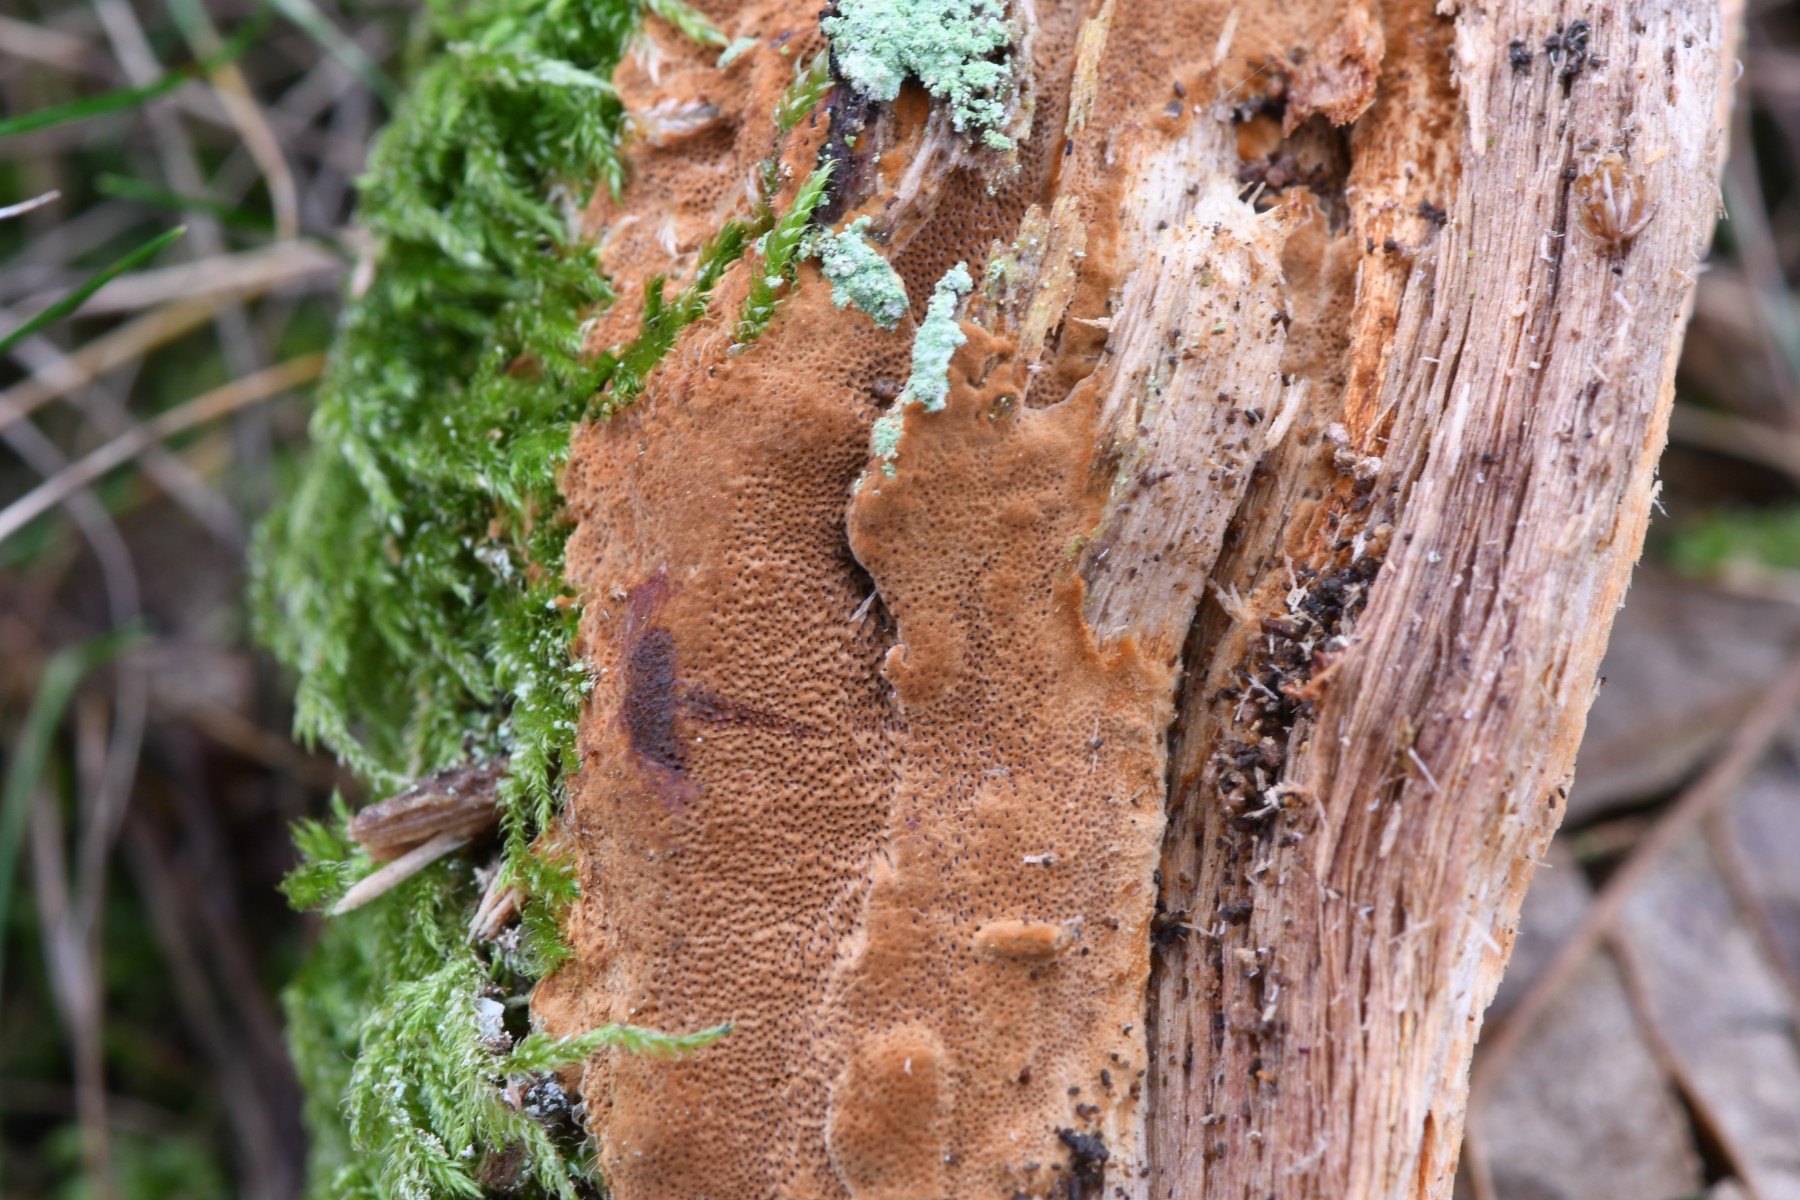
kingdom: Fungi
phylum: Basidiomycota
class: Agaricomycetes
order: Hymenochaetales
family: Hymenochaetaceae
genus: Fuscoporia
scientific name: Fuscoporia ferrea
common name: skorpe-ildporesvamp
